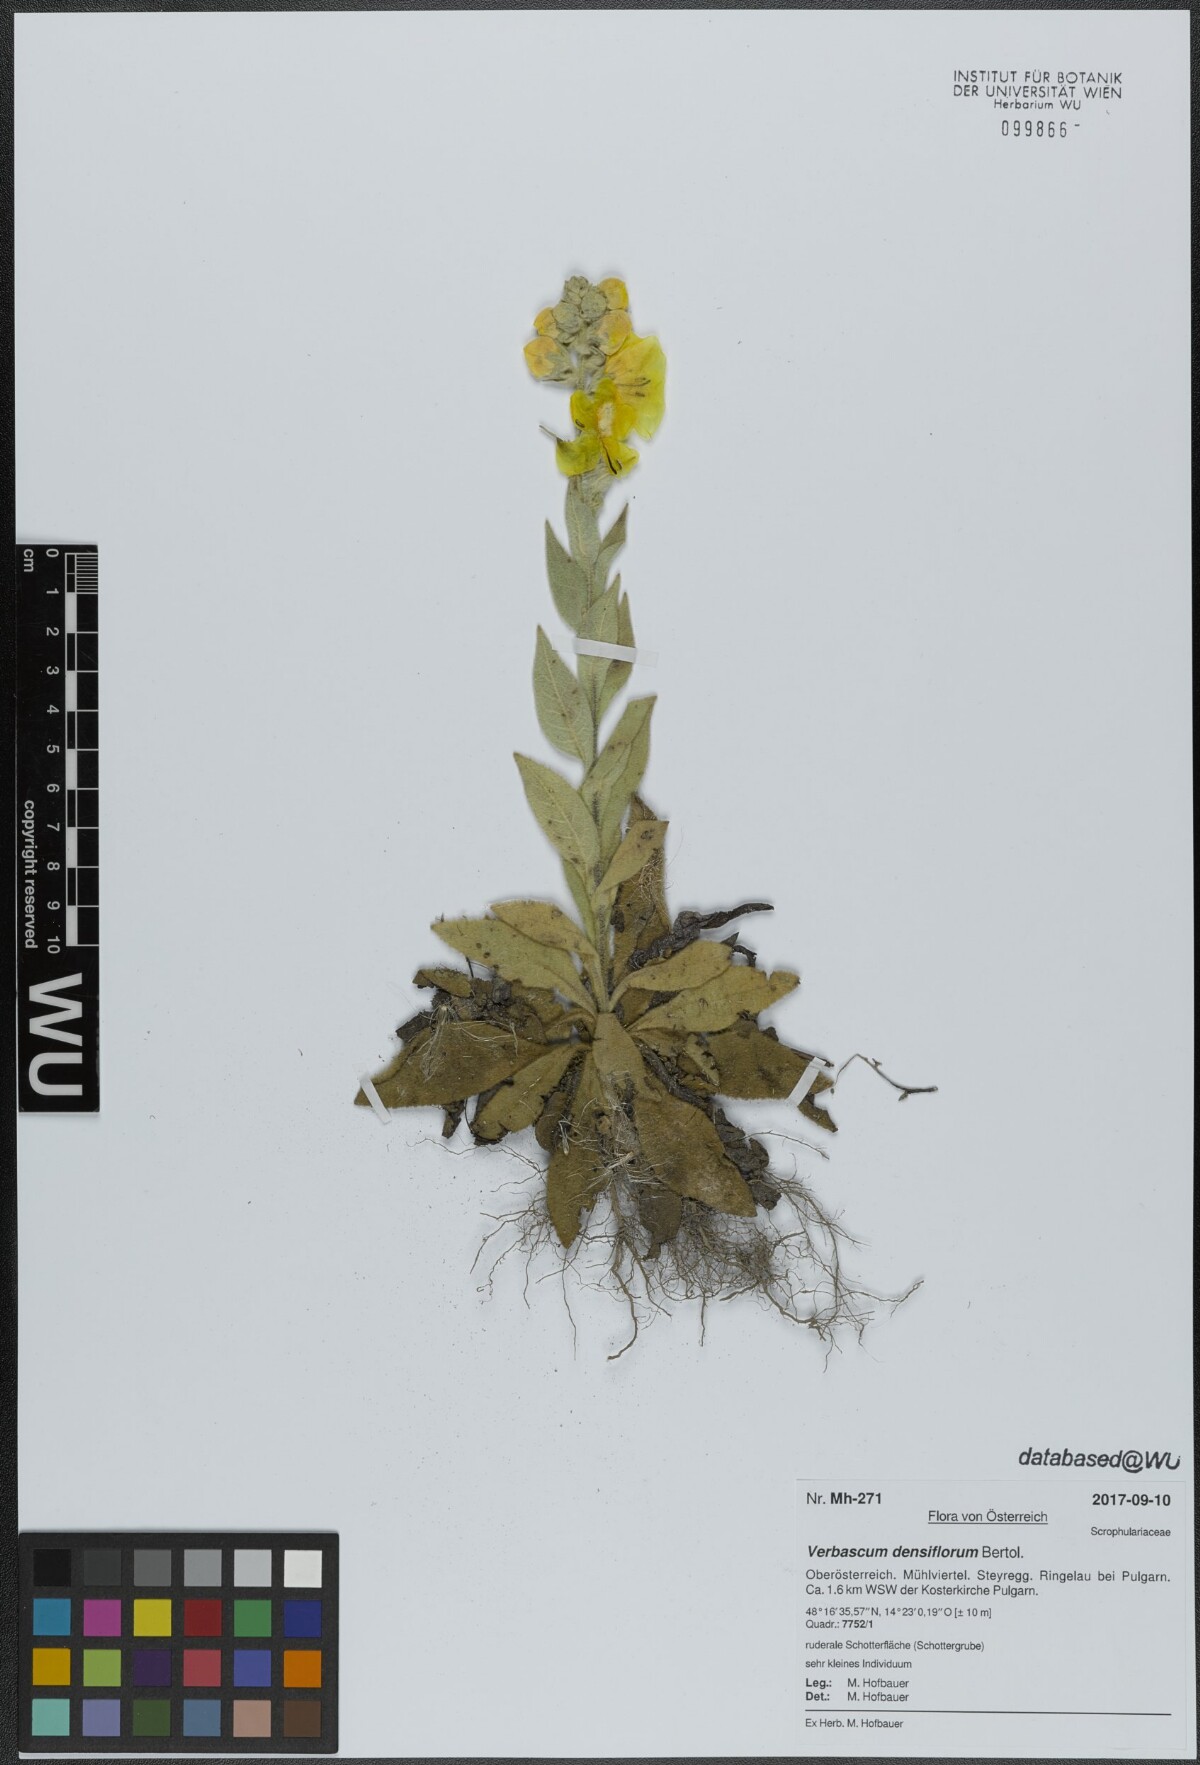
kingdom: Plantae
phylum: Tracheophyta
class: Magnoliopsida
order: Lamiales
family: Scrophulariaceae
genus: Verbascum
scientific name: Verbascum densiflorum
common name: Dense-flowered mullein
